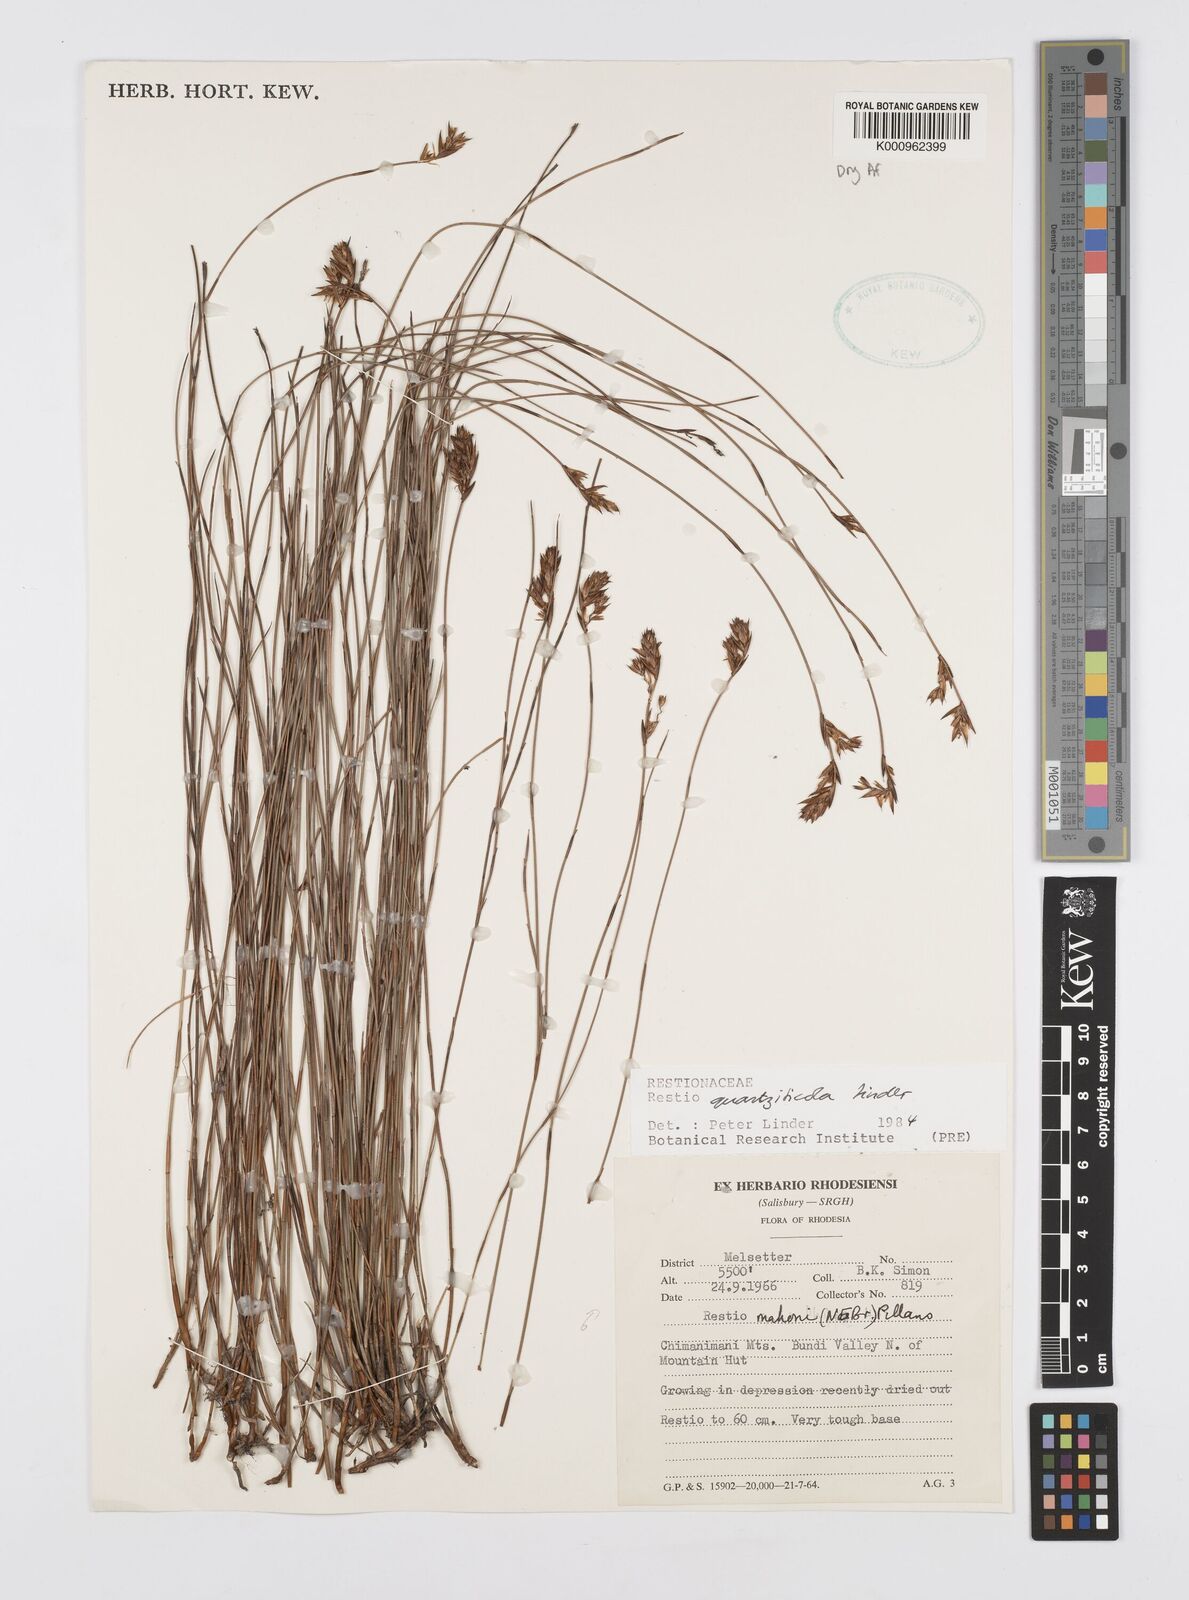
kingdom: Plantae
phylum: Tracheophyta
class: Liliopsida
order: Poales
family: Restionaceae
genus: Platycaulos
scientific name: Platycaulos quartziticola
